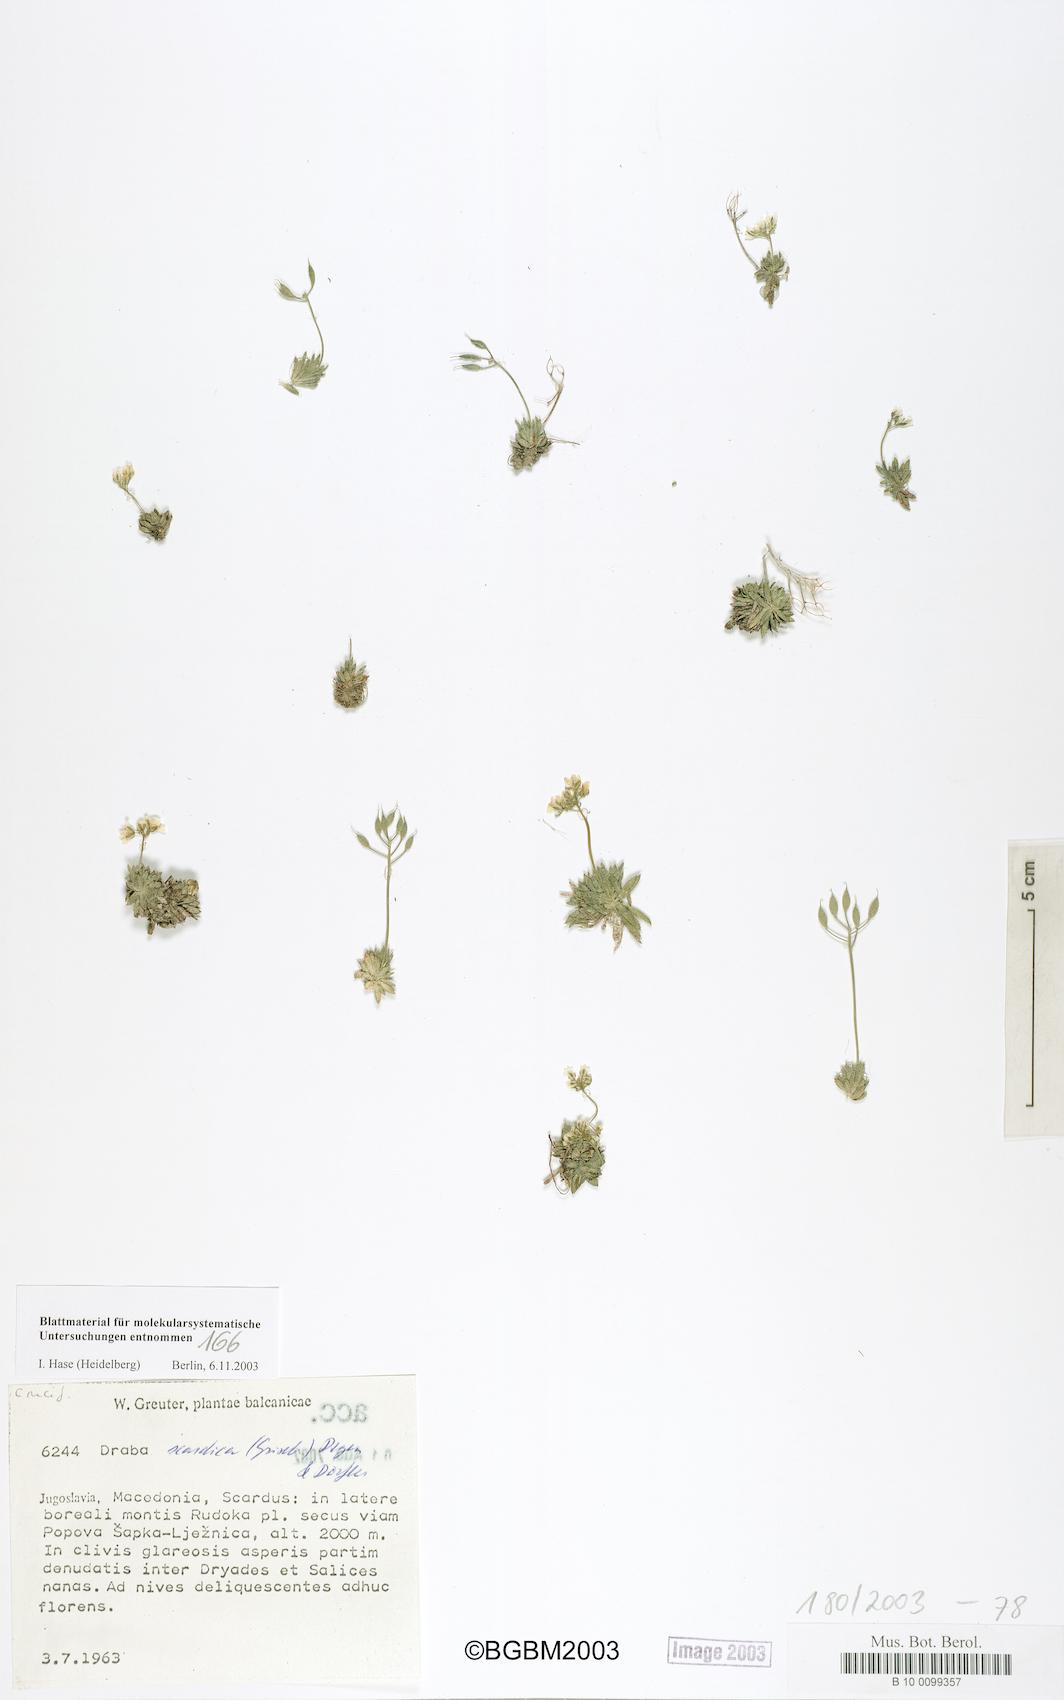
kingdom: Plantae
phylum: Tracheophyta
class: Magnoliopsida
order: Brassicales
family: Brassicaceae
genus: Draba
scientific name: Draba lasiocarpa
